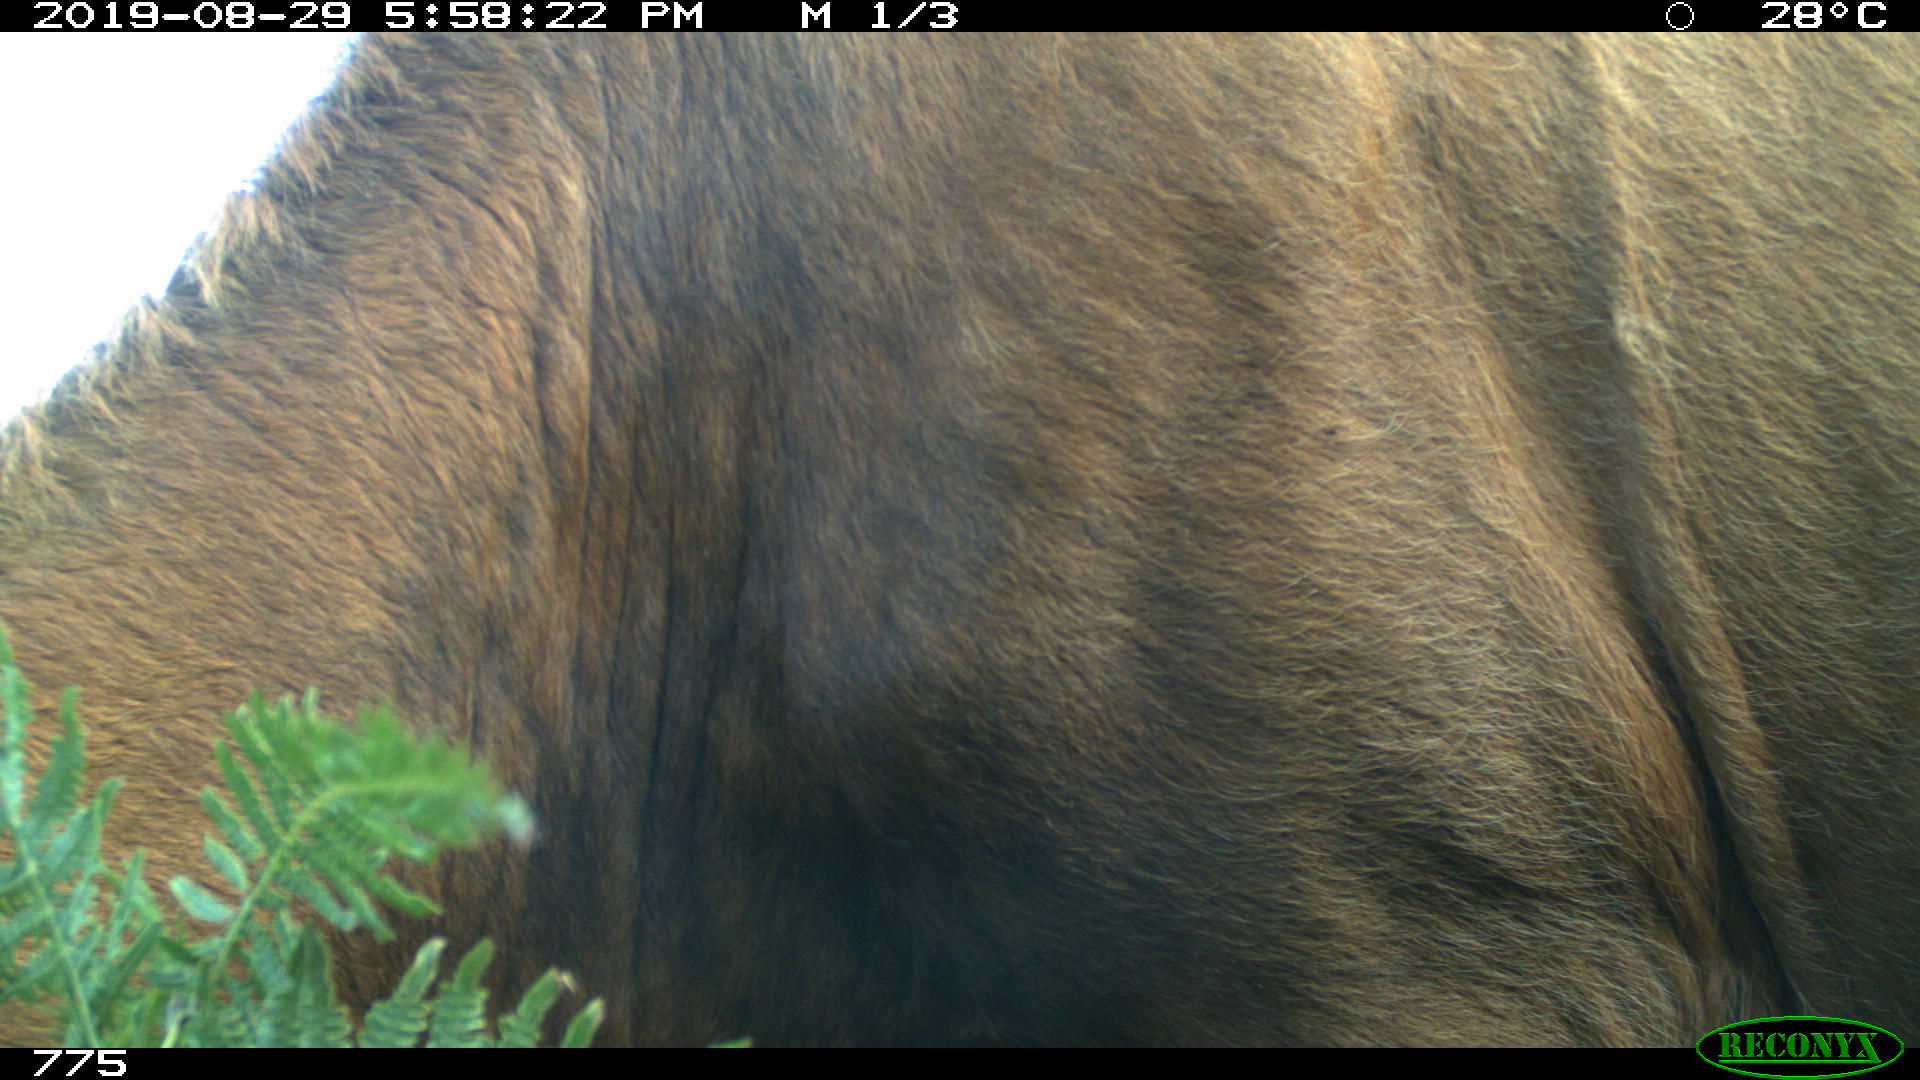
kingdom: Animalia
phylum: Chordata
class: Mammalia
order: Artiodactyla
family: Bovidae
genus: Bos
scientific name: Bos taurus
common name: Domesticated cattle
